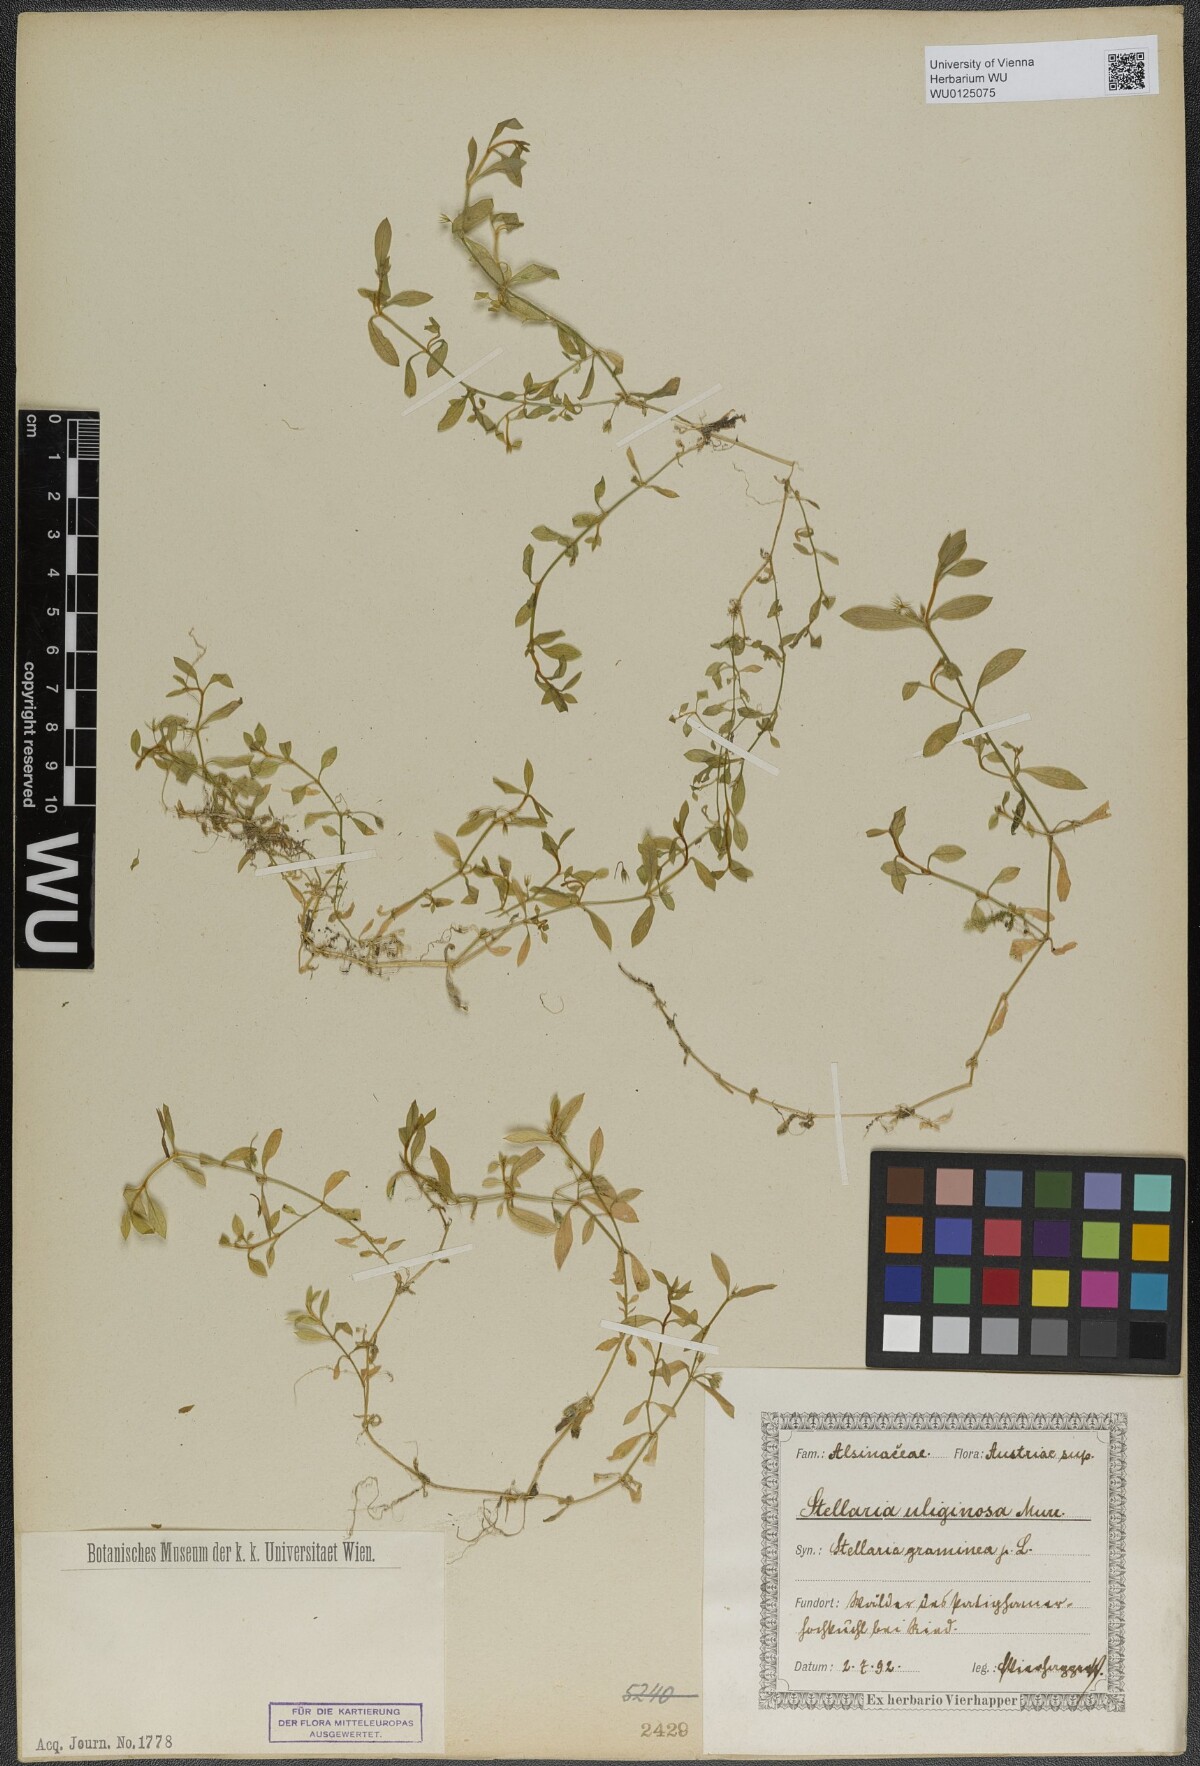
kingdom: Plantae
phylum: Tracheophyta
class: Magnoliopsida
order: Caryophyllales
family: Caryophyllaceae
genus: Stellaria
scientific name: Stellaria alsine
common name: Bog stitchwort
